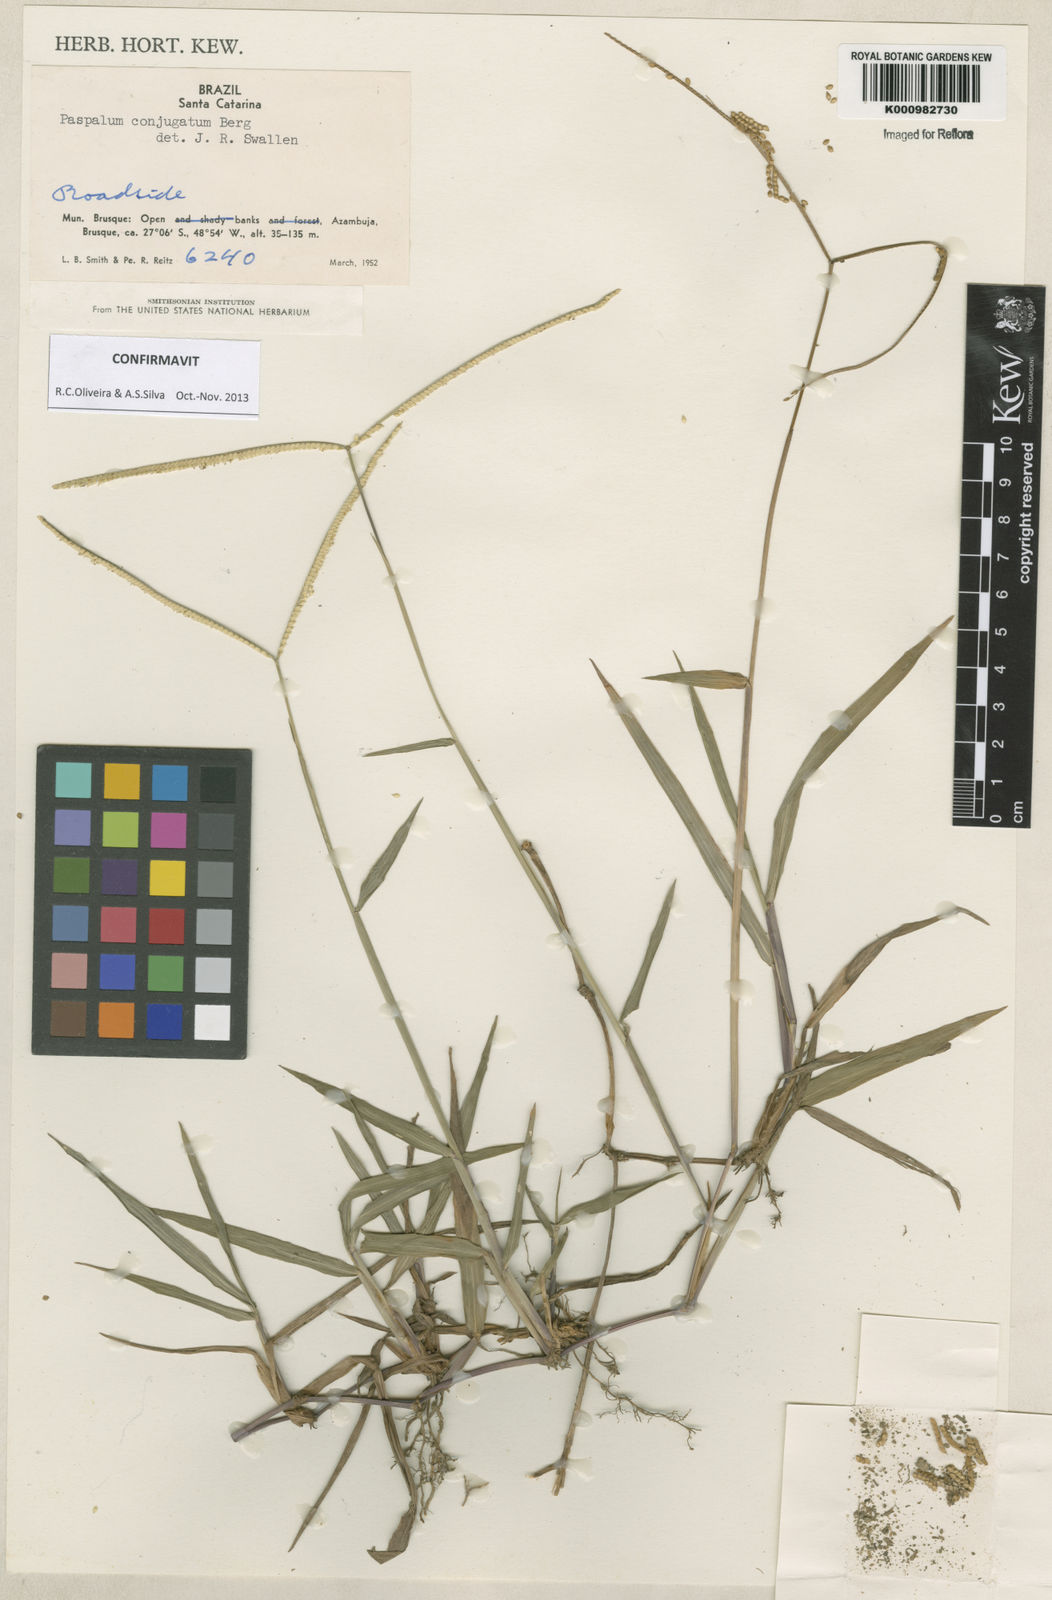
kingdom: Plantae
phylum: Tracheophyta
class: Liliopsida
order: Poales
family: Poaceae
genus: Paspalum
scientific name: Paspalum conjugatum
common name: Hilograss
